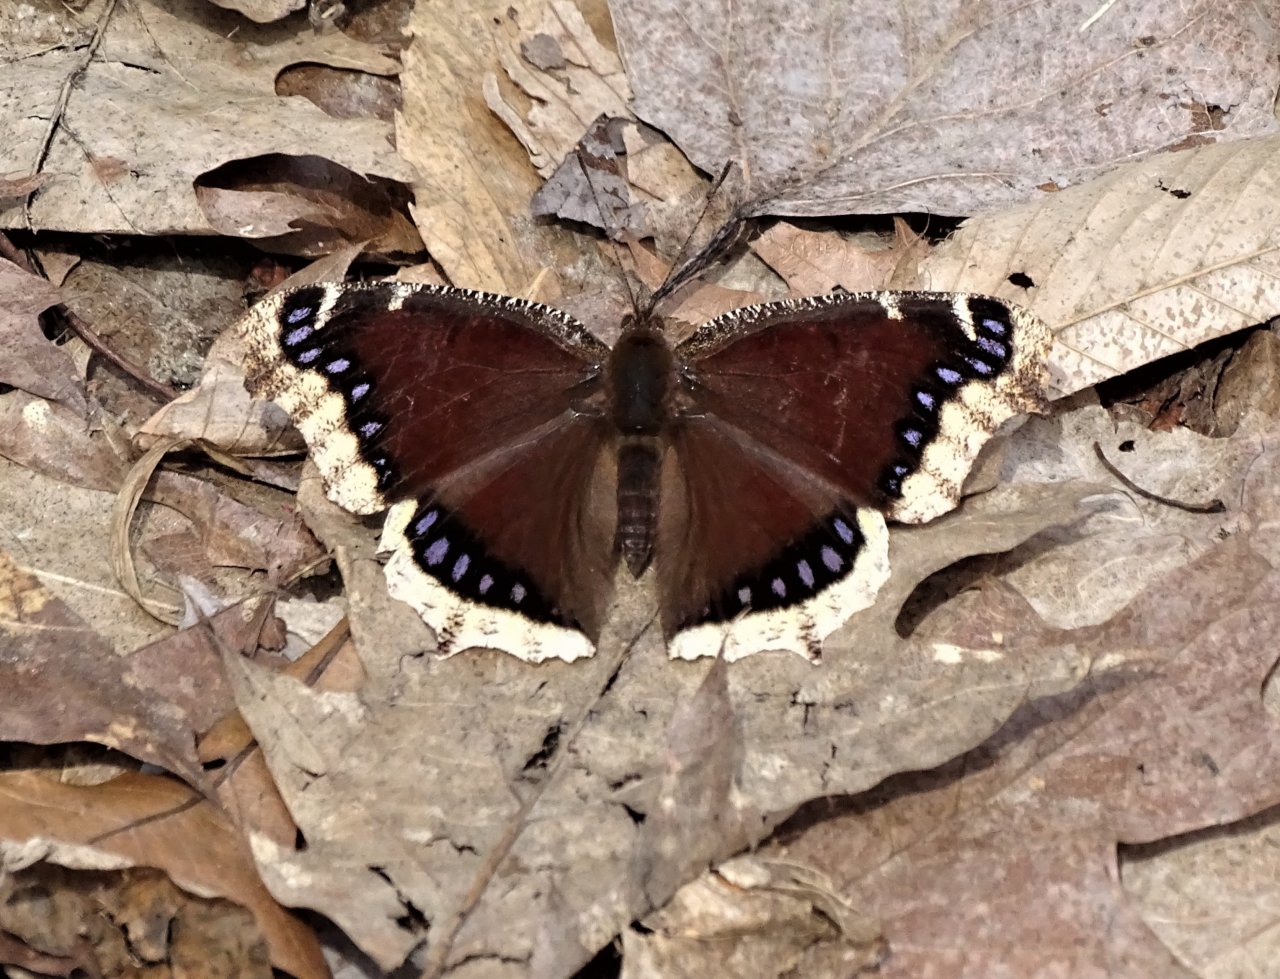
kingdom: Animalia
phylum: Arthropoda
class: Insecta
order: Lepidoptera
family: Nymphalidae
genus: Nymphalis
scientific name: Nymphalis antiopa
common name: Mourning Cloak
